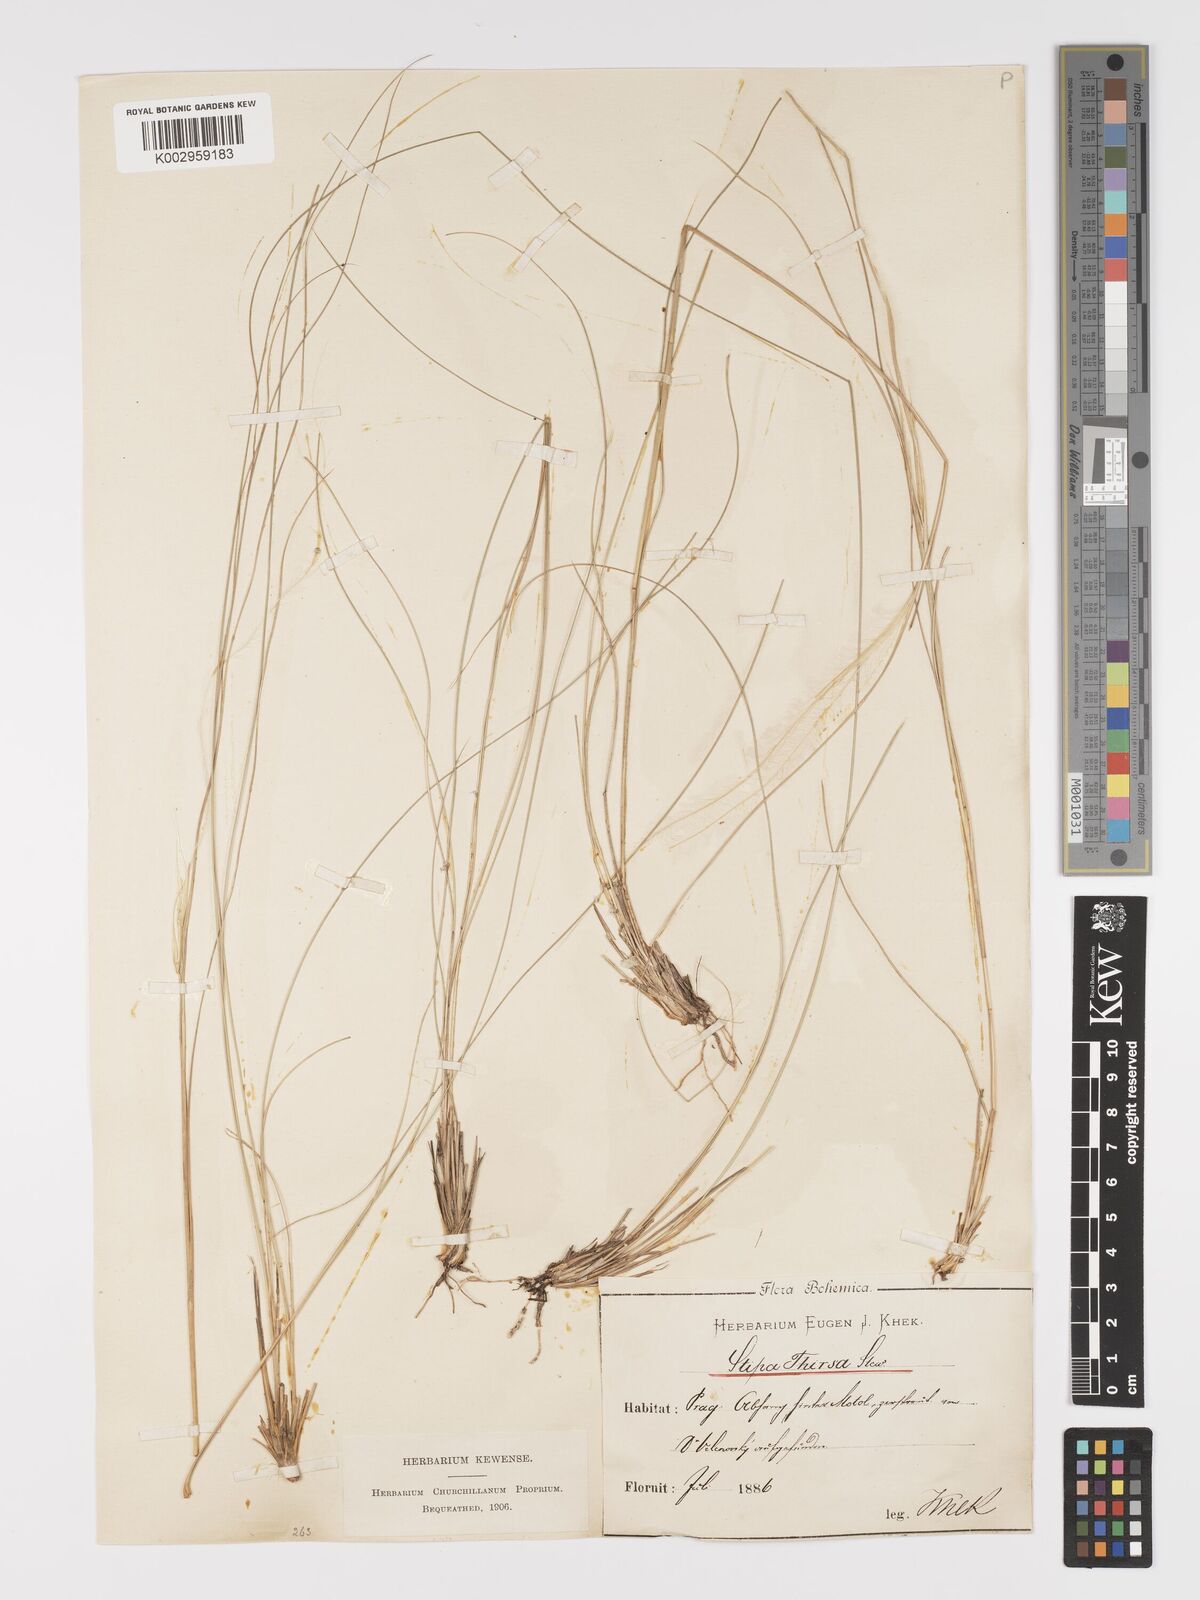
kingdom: Plantae
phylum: Tracheophyta
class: Liliopsida
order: Poales
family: Poaceae
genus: Stipa
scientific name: Stipa pennata
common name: European feather grass
